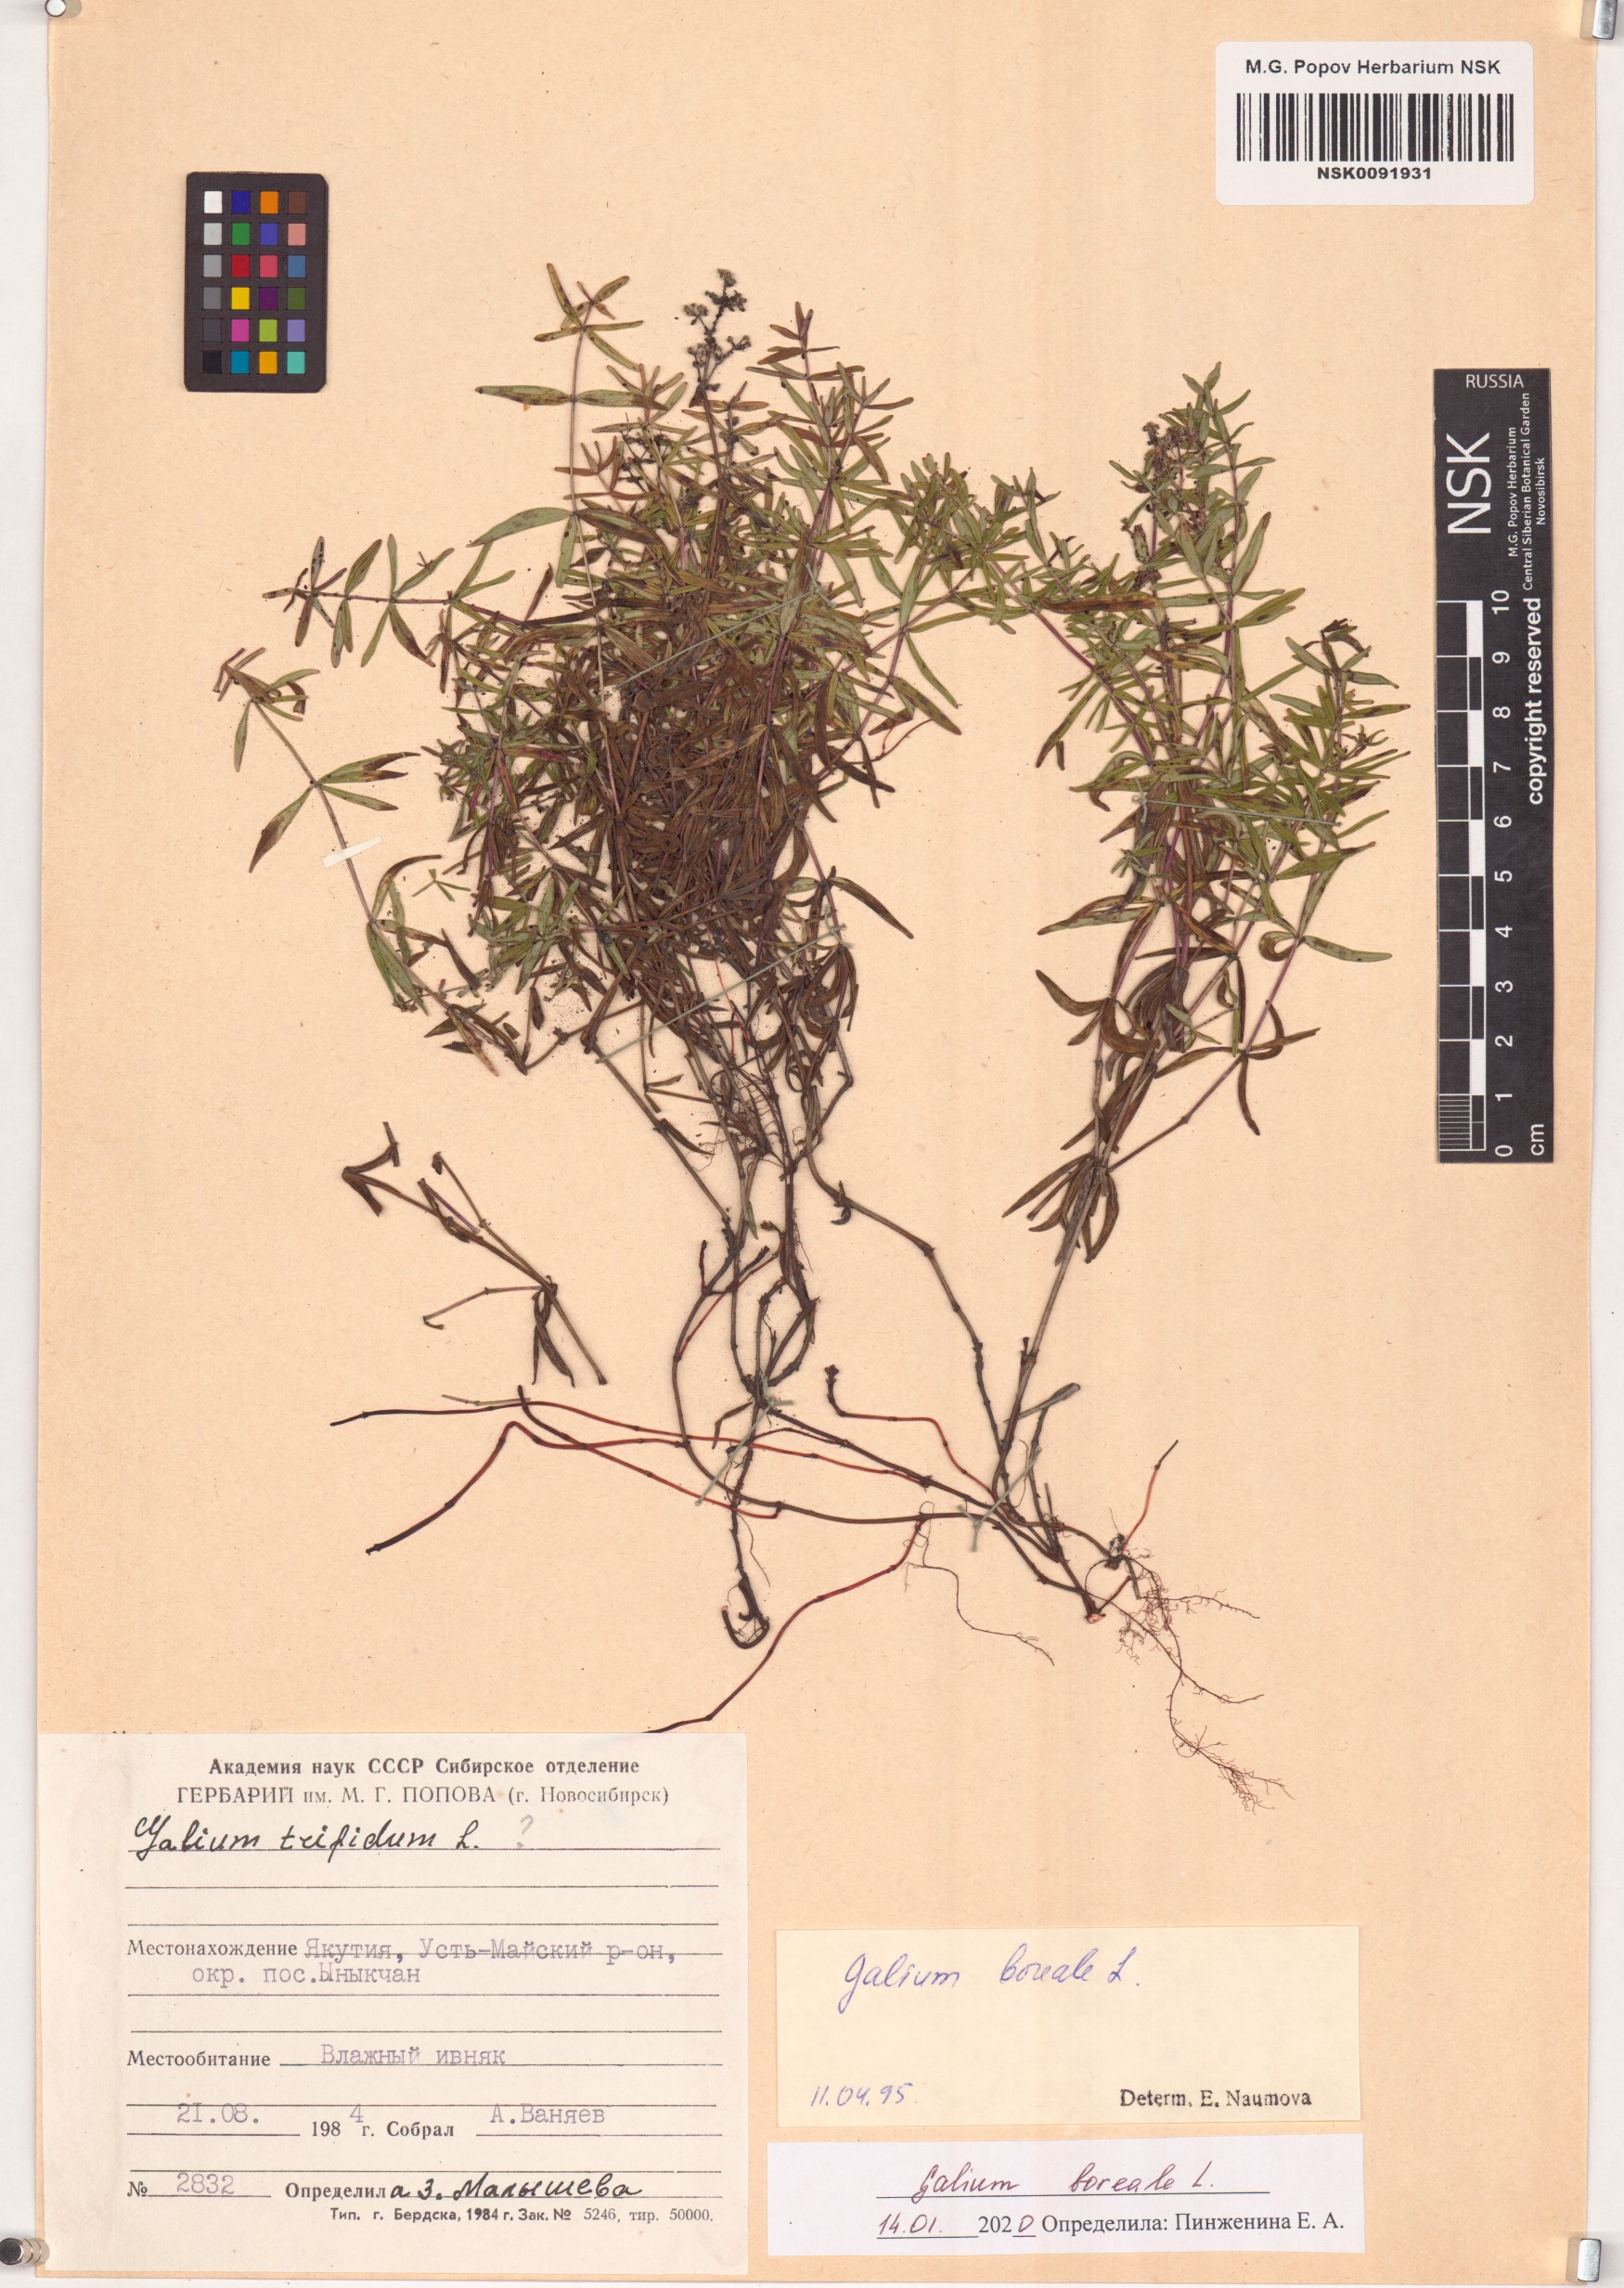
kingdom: Plantae
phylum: Tracheophyta
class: Magnoliopsida
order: Gentianales
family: Rubiaceae
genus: Galium
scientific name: Galium boreale
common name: Northern bedstraw
